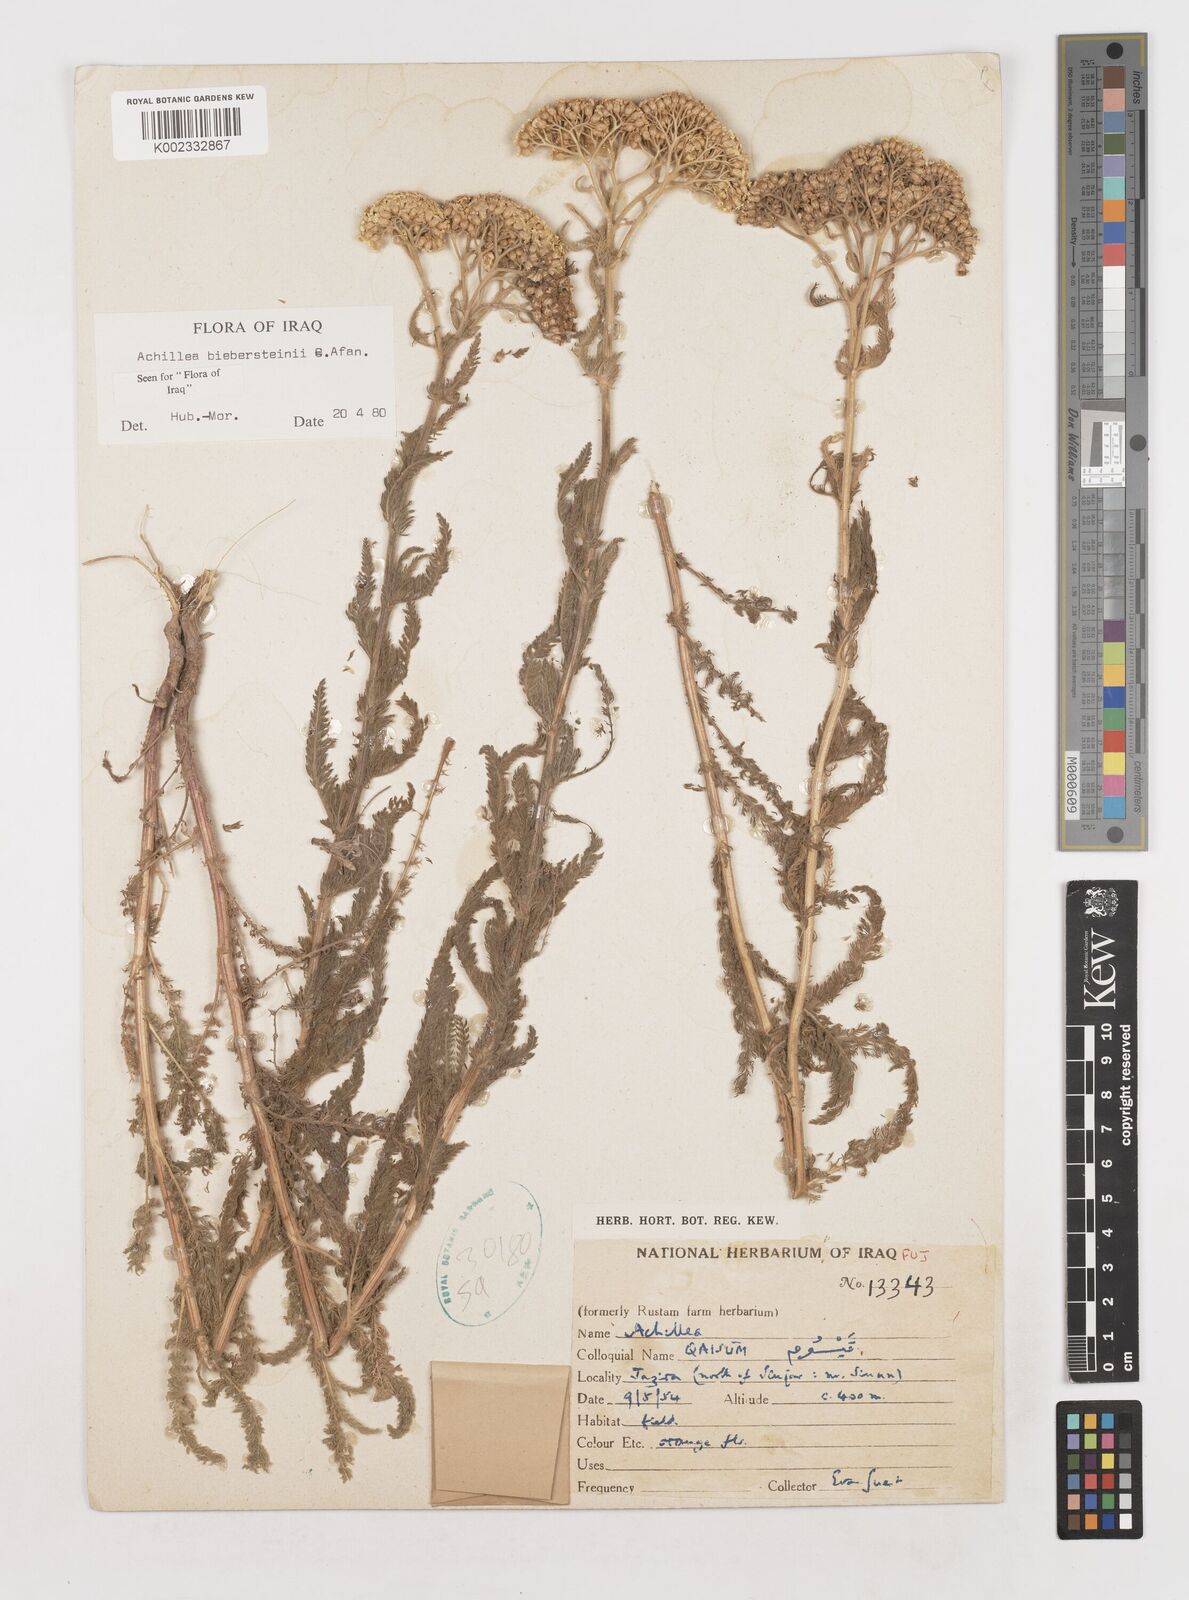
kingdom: Plantae
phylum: Tracheophyta
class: Magnoliopsida
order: Asterales
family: Asteraceae
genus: Achillea
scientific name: Achillea arabica
